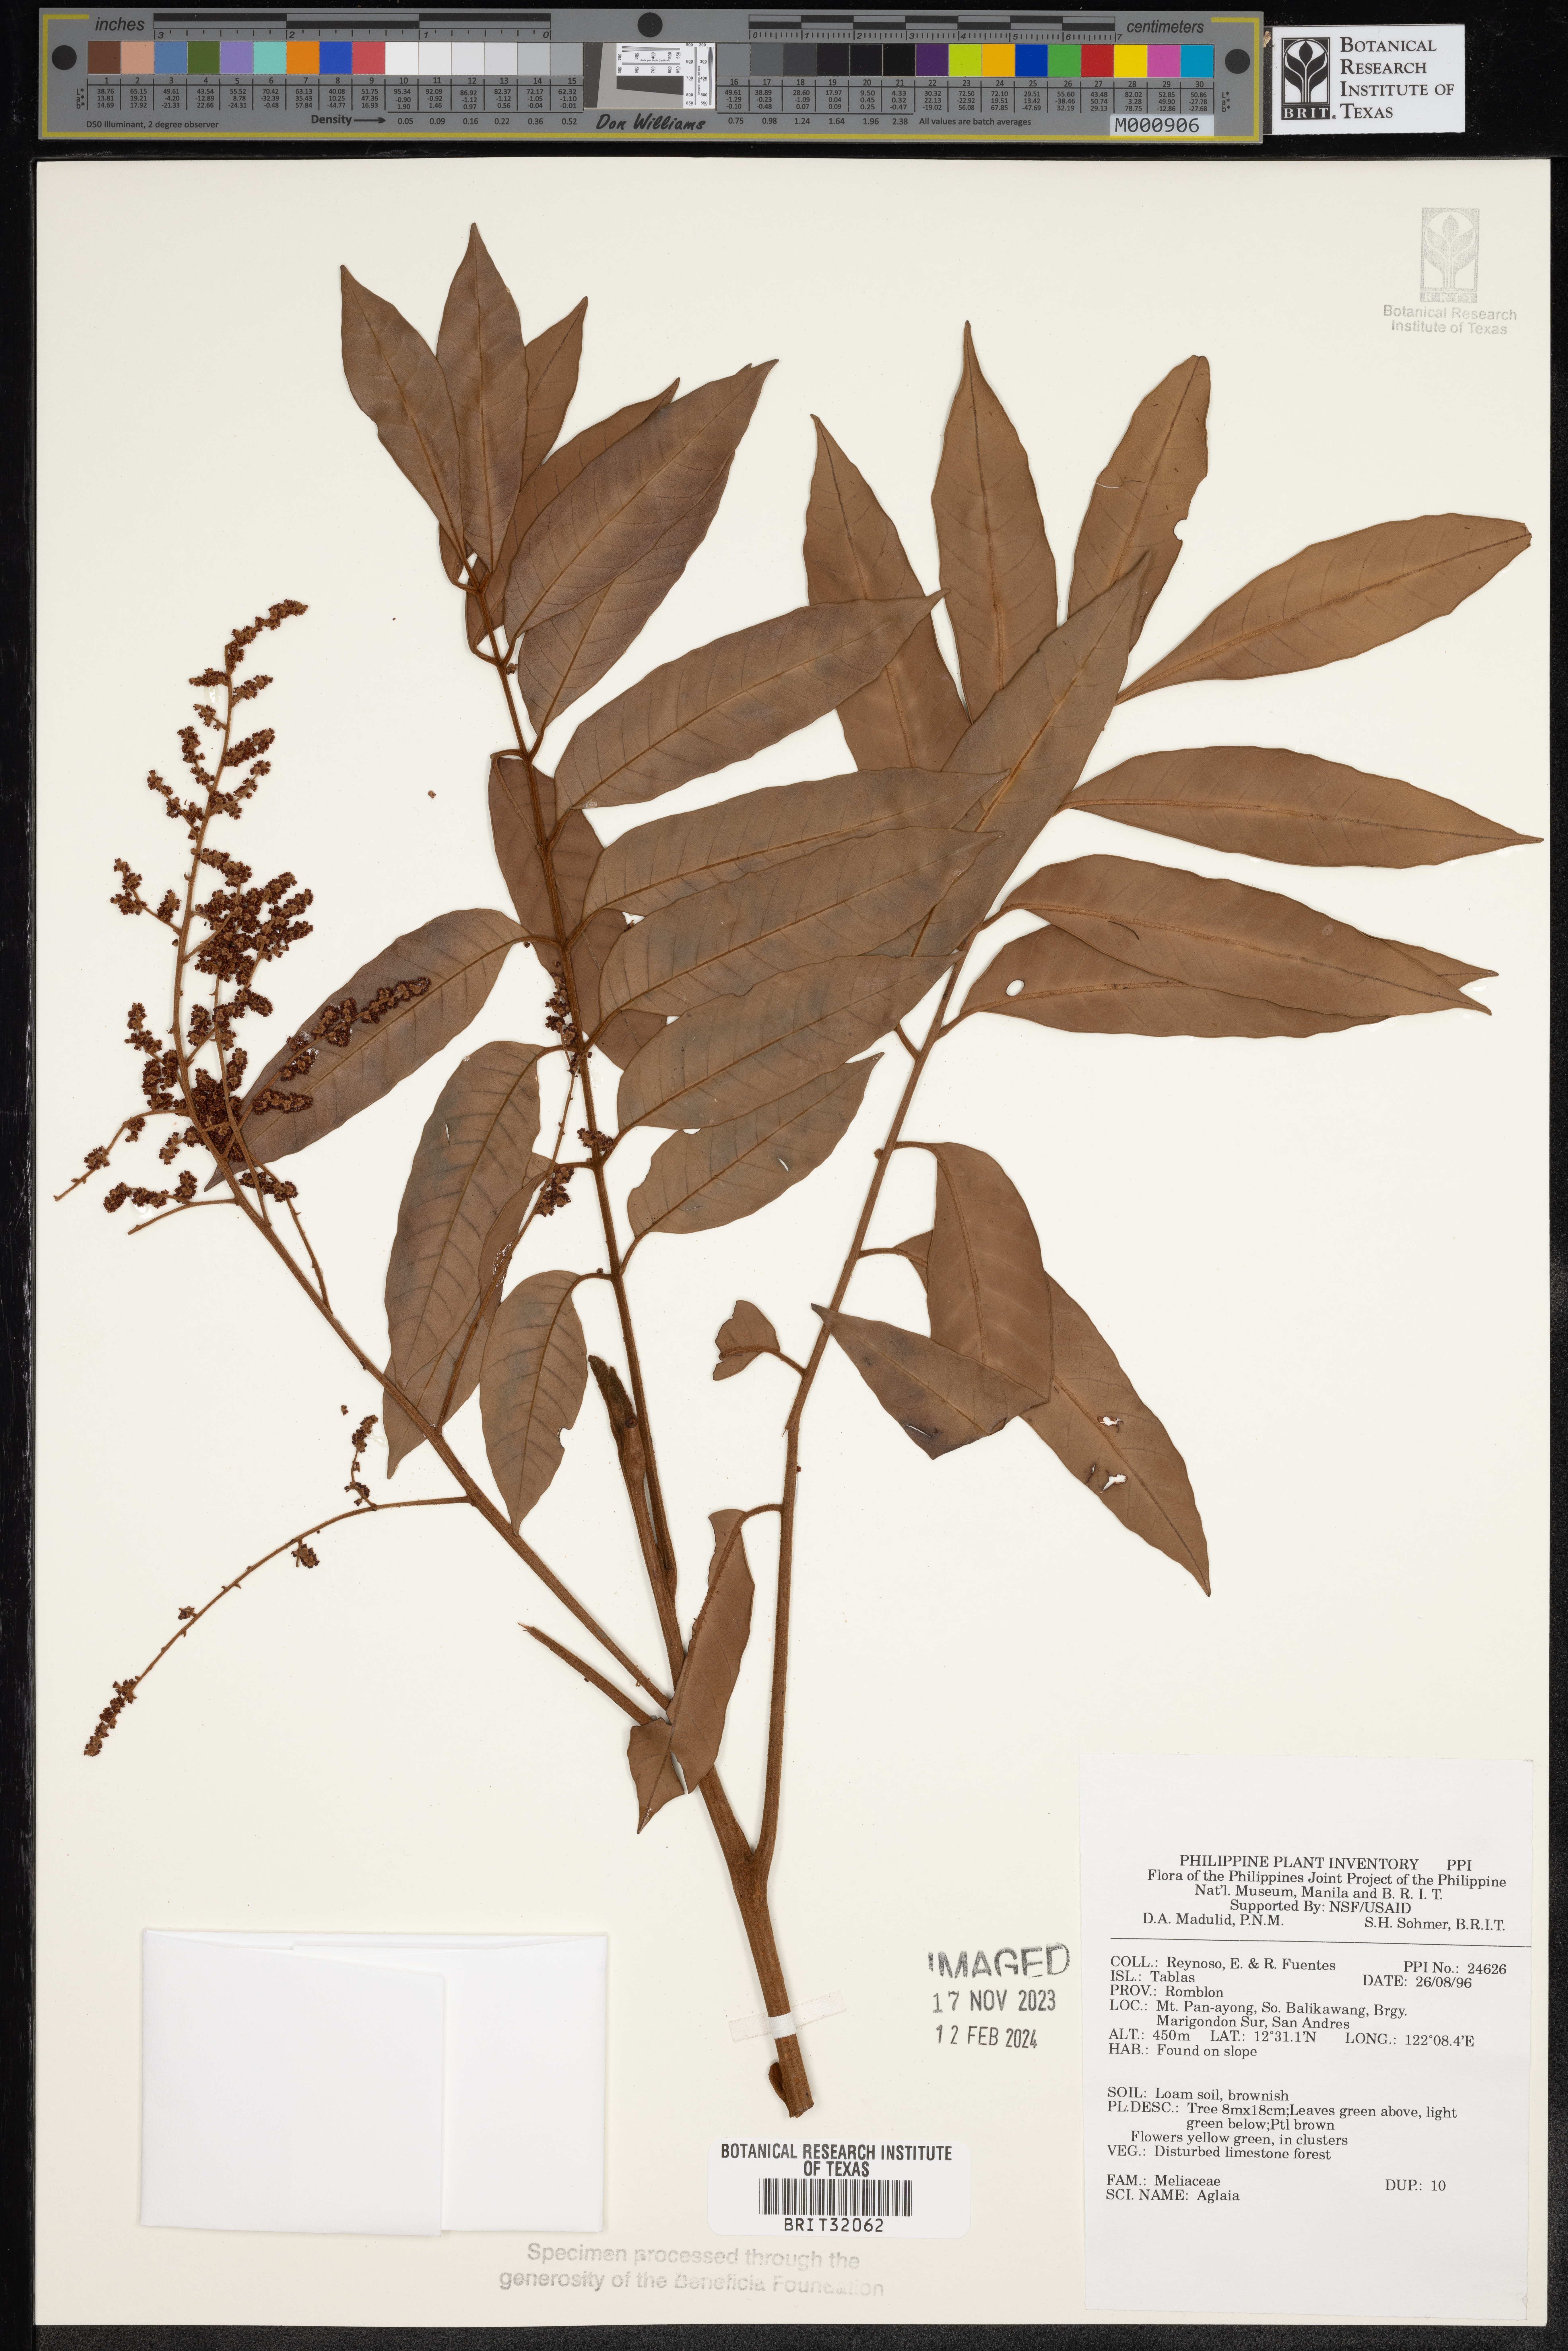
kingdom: Plantae
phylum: Tracheophyta
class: Magnoliopsida
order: Sapindales
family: Meliaceae
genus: Aglaia
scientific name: Aglaia
